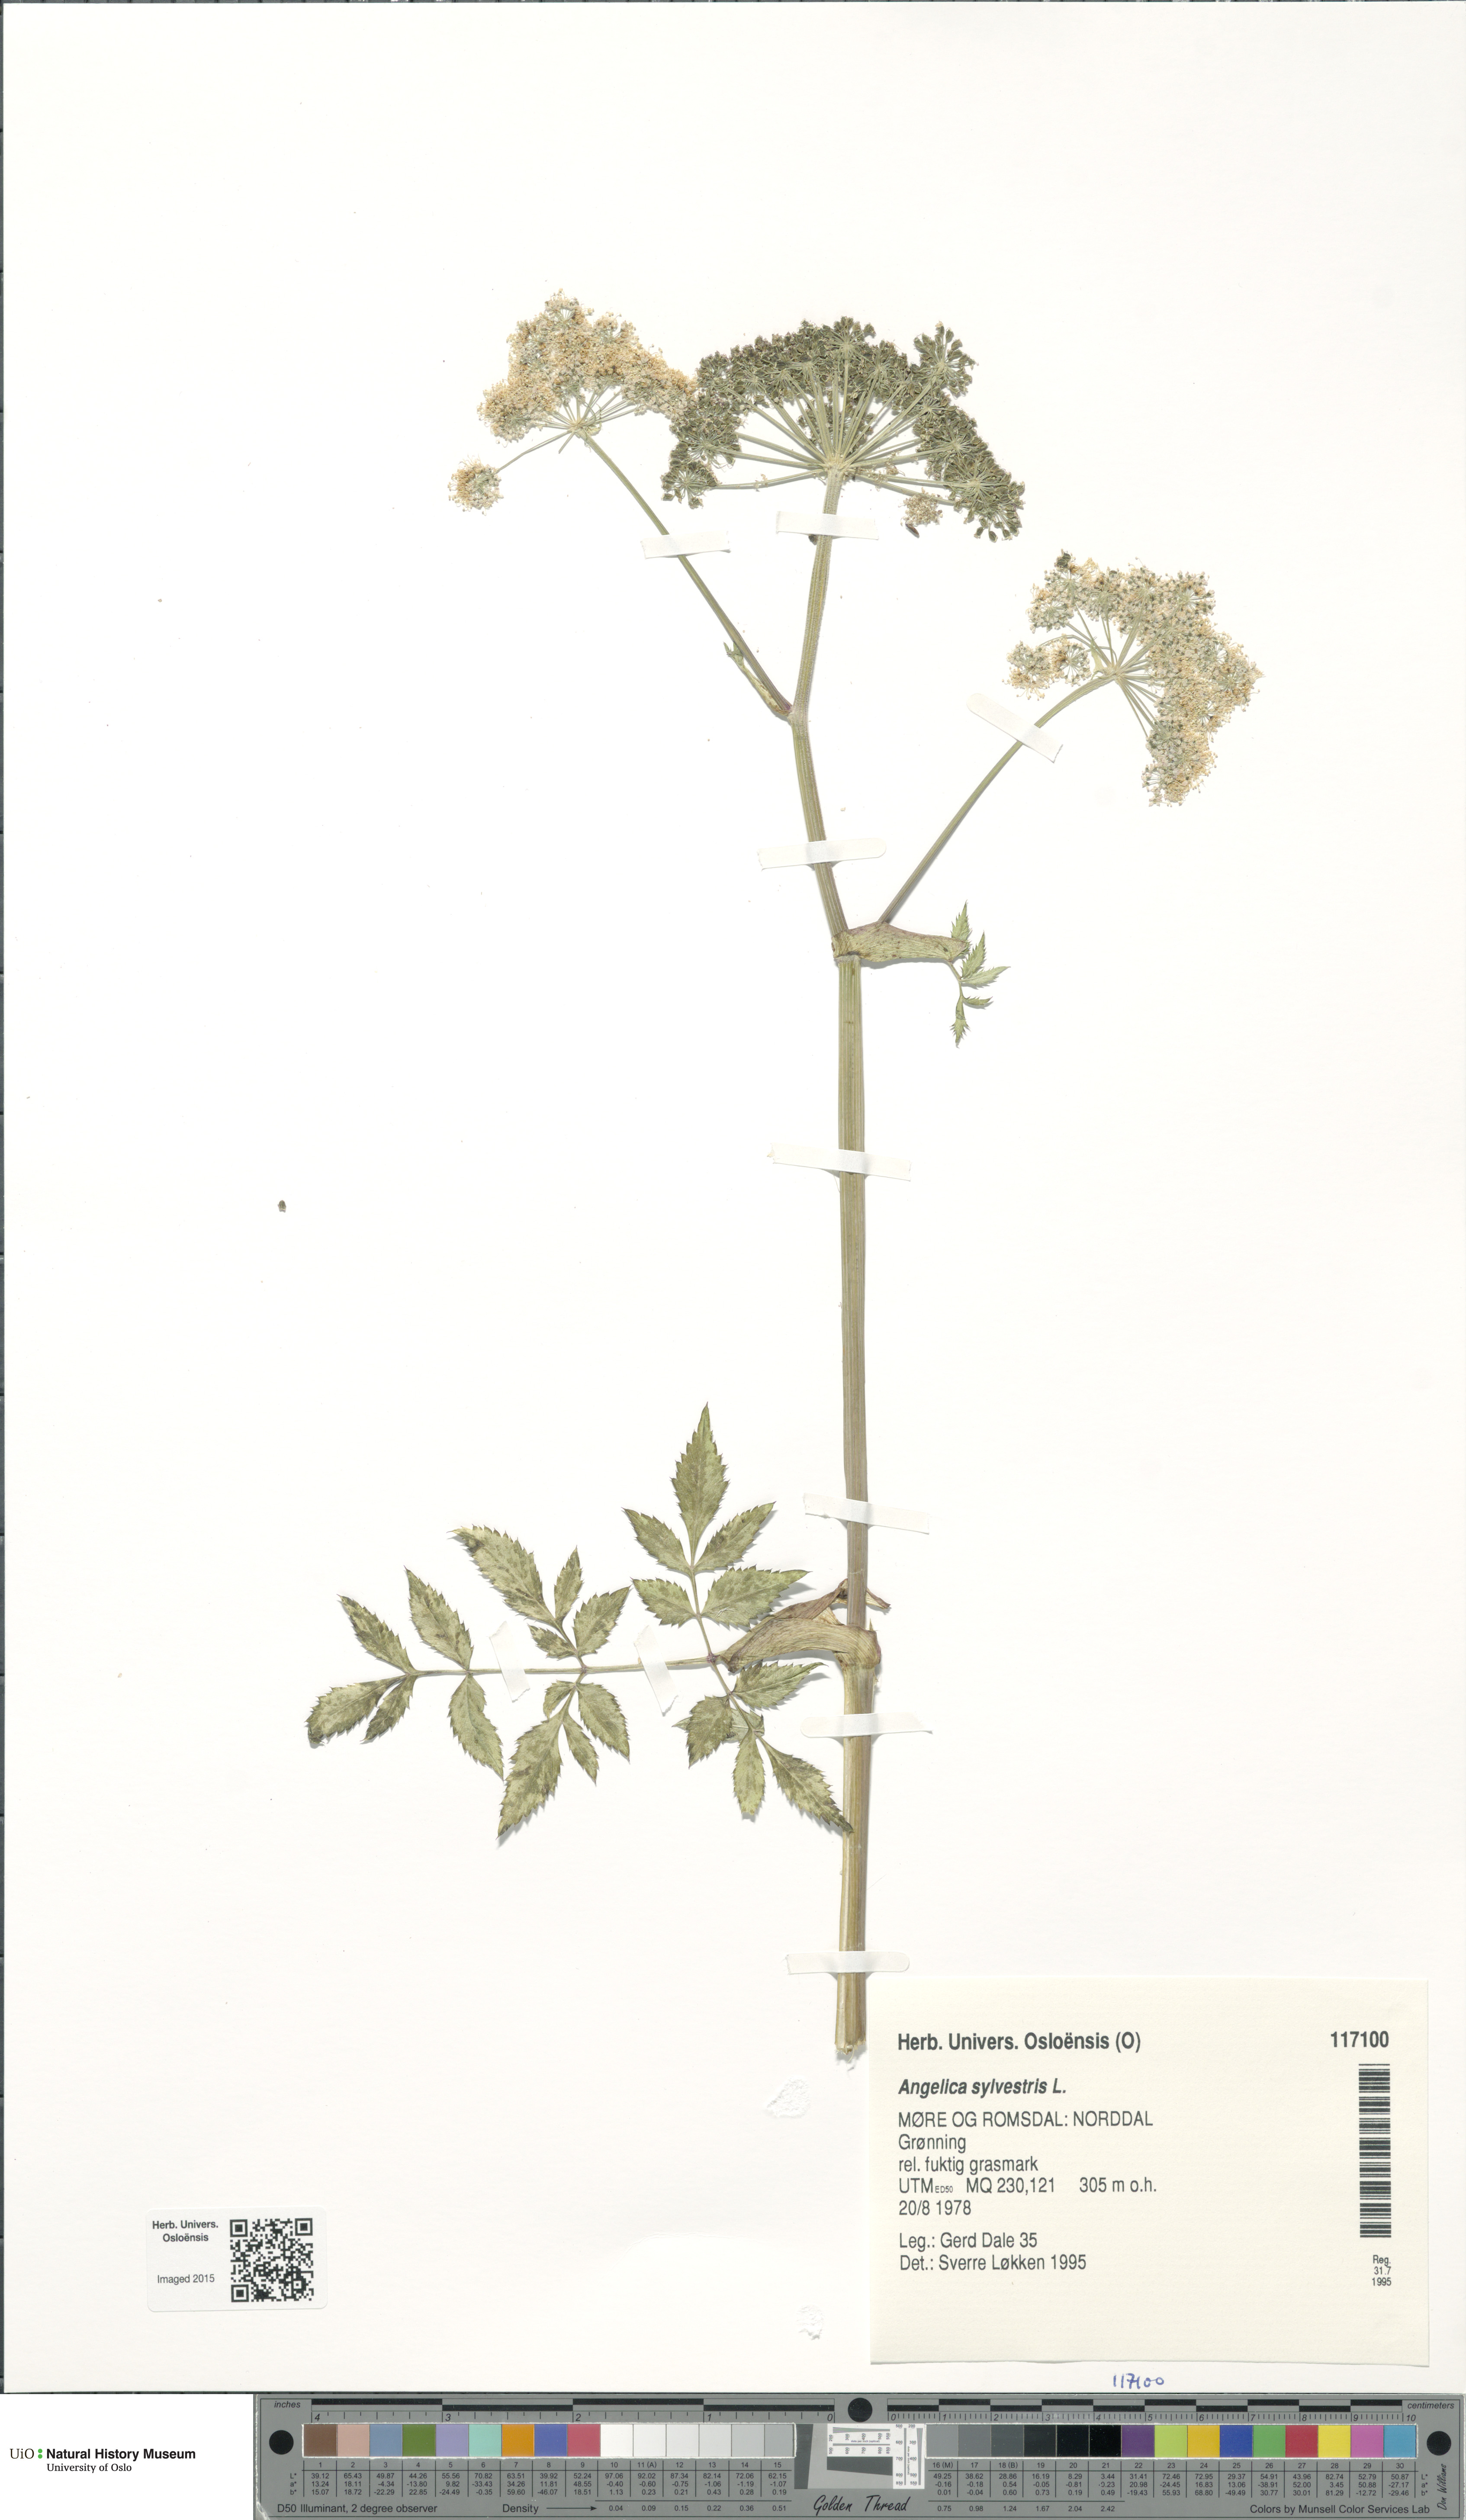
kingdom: Plantae
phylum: Tracheophyta
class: Magnoliopsida
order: Apiales
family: Apiaceae
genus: Angelica
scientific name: Angelica sylvestris
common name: Wild angelica
